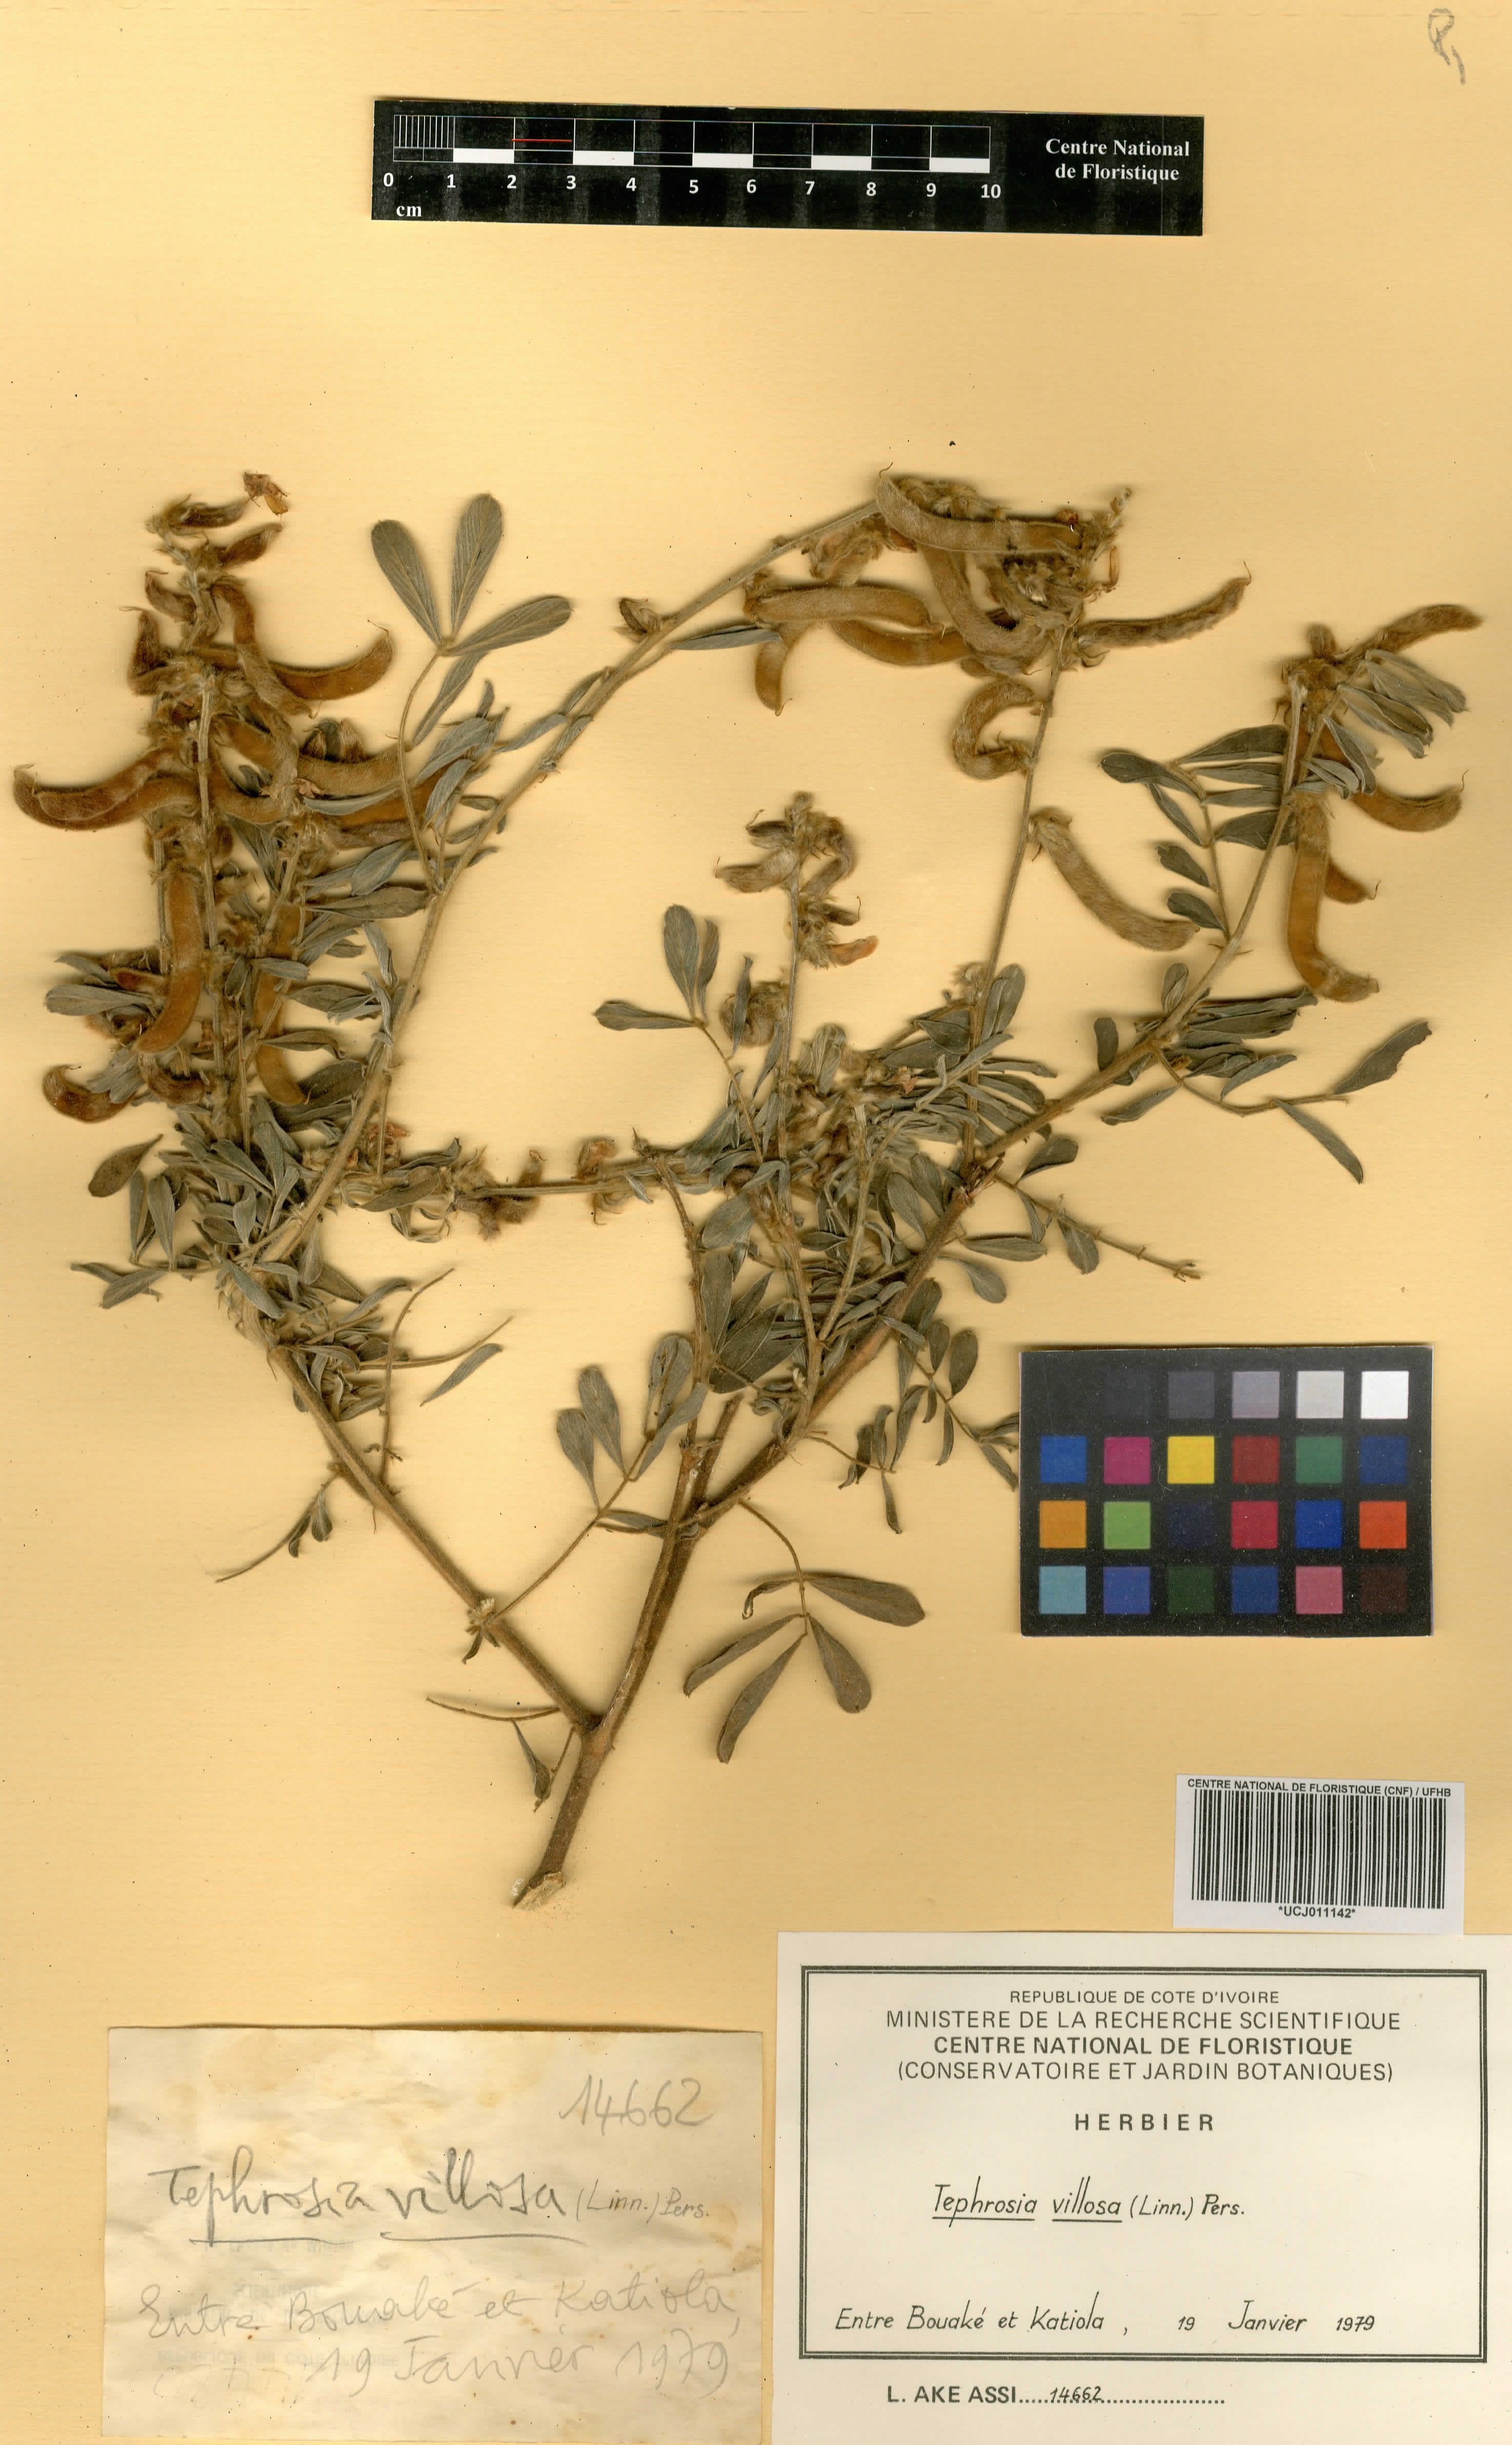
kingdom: Plantae
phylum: Tracheophyta
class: Magnoliopsida
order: Fabales
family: Fabaceae
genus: Tephrosia
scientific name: Tephrosia villosa
